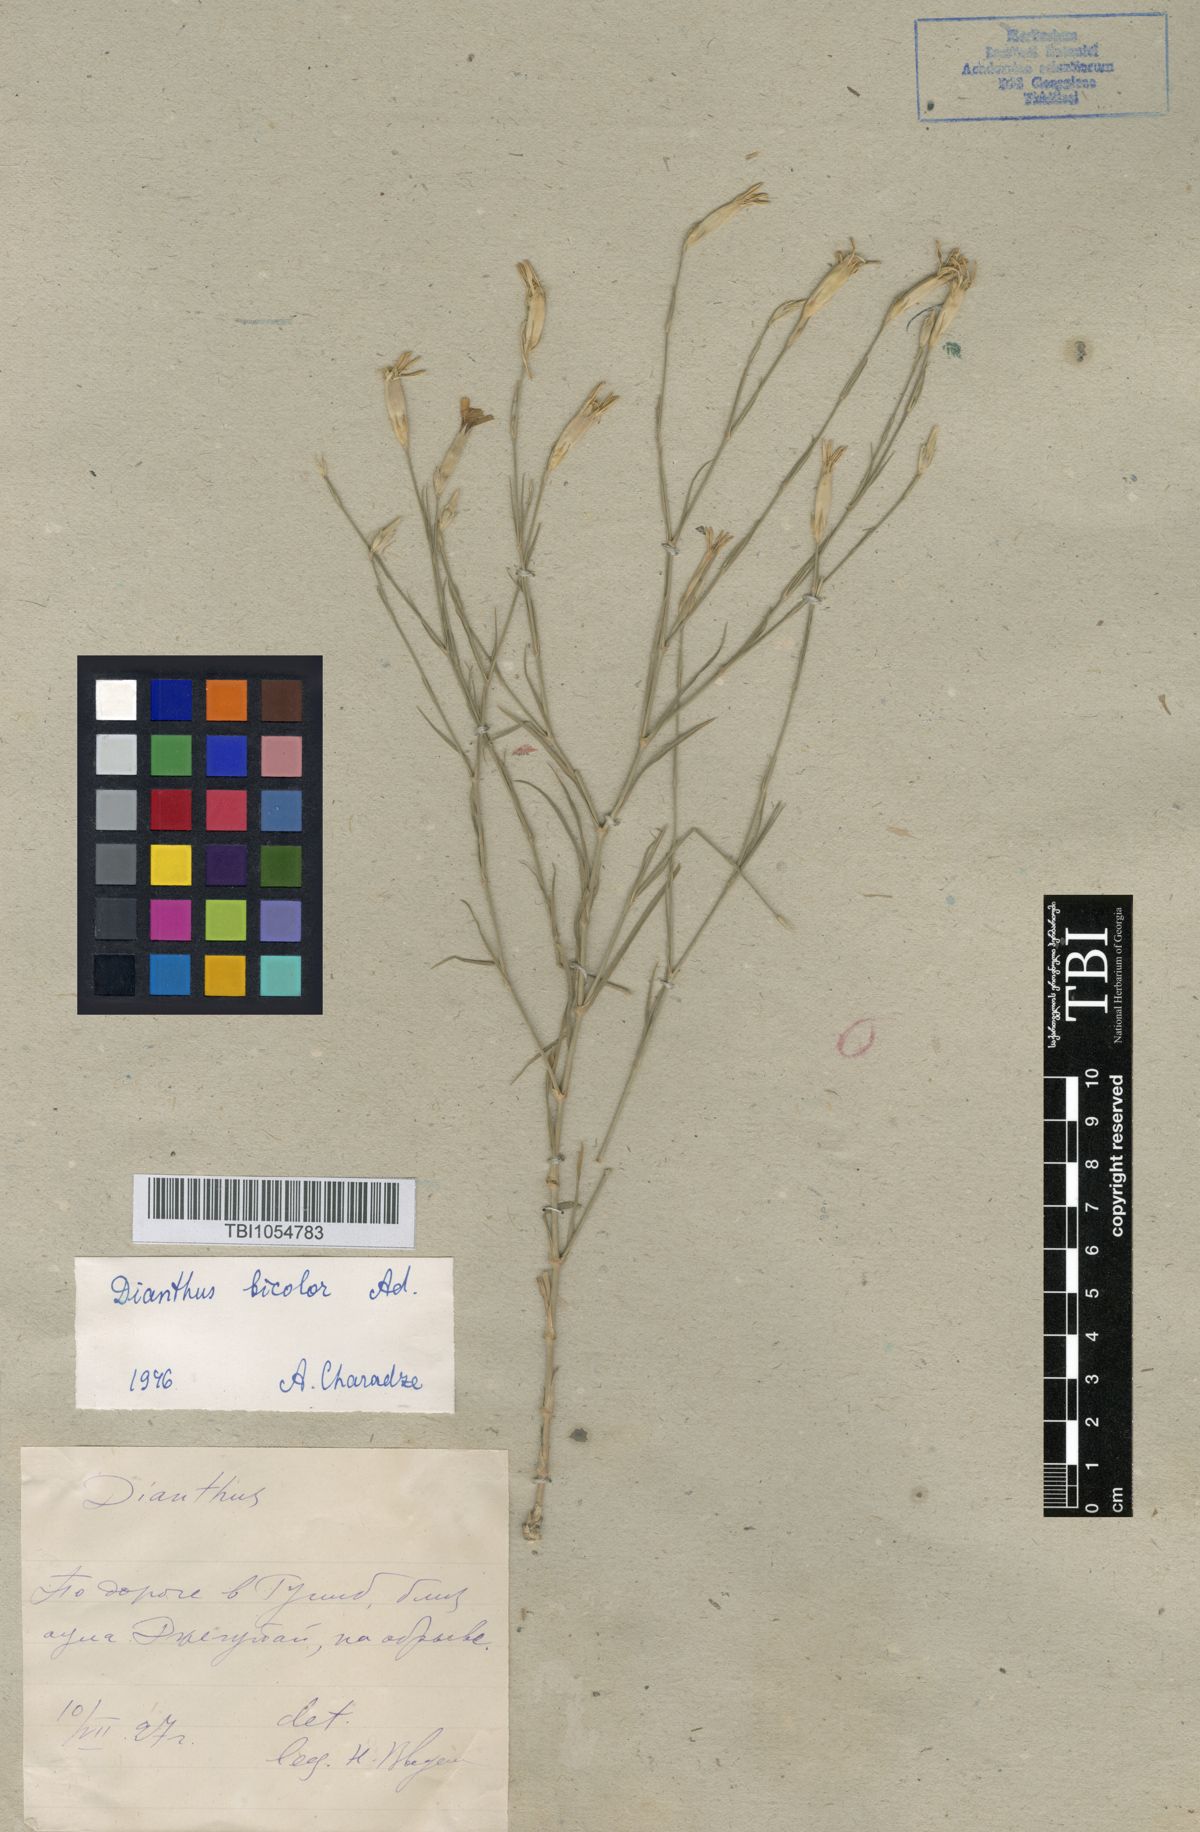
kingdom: Plantae
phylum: Tracheophyta
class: Magnoliopsida
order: Caryophyllales
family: Caryophyllaceae
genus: Dianthus
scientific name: Dianthus marschallii
